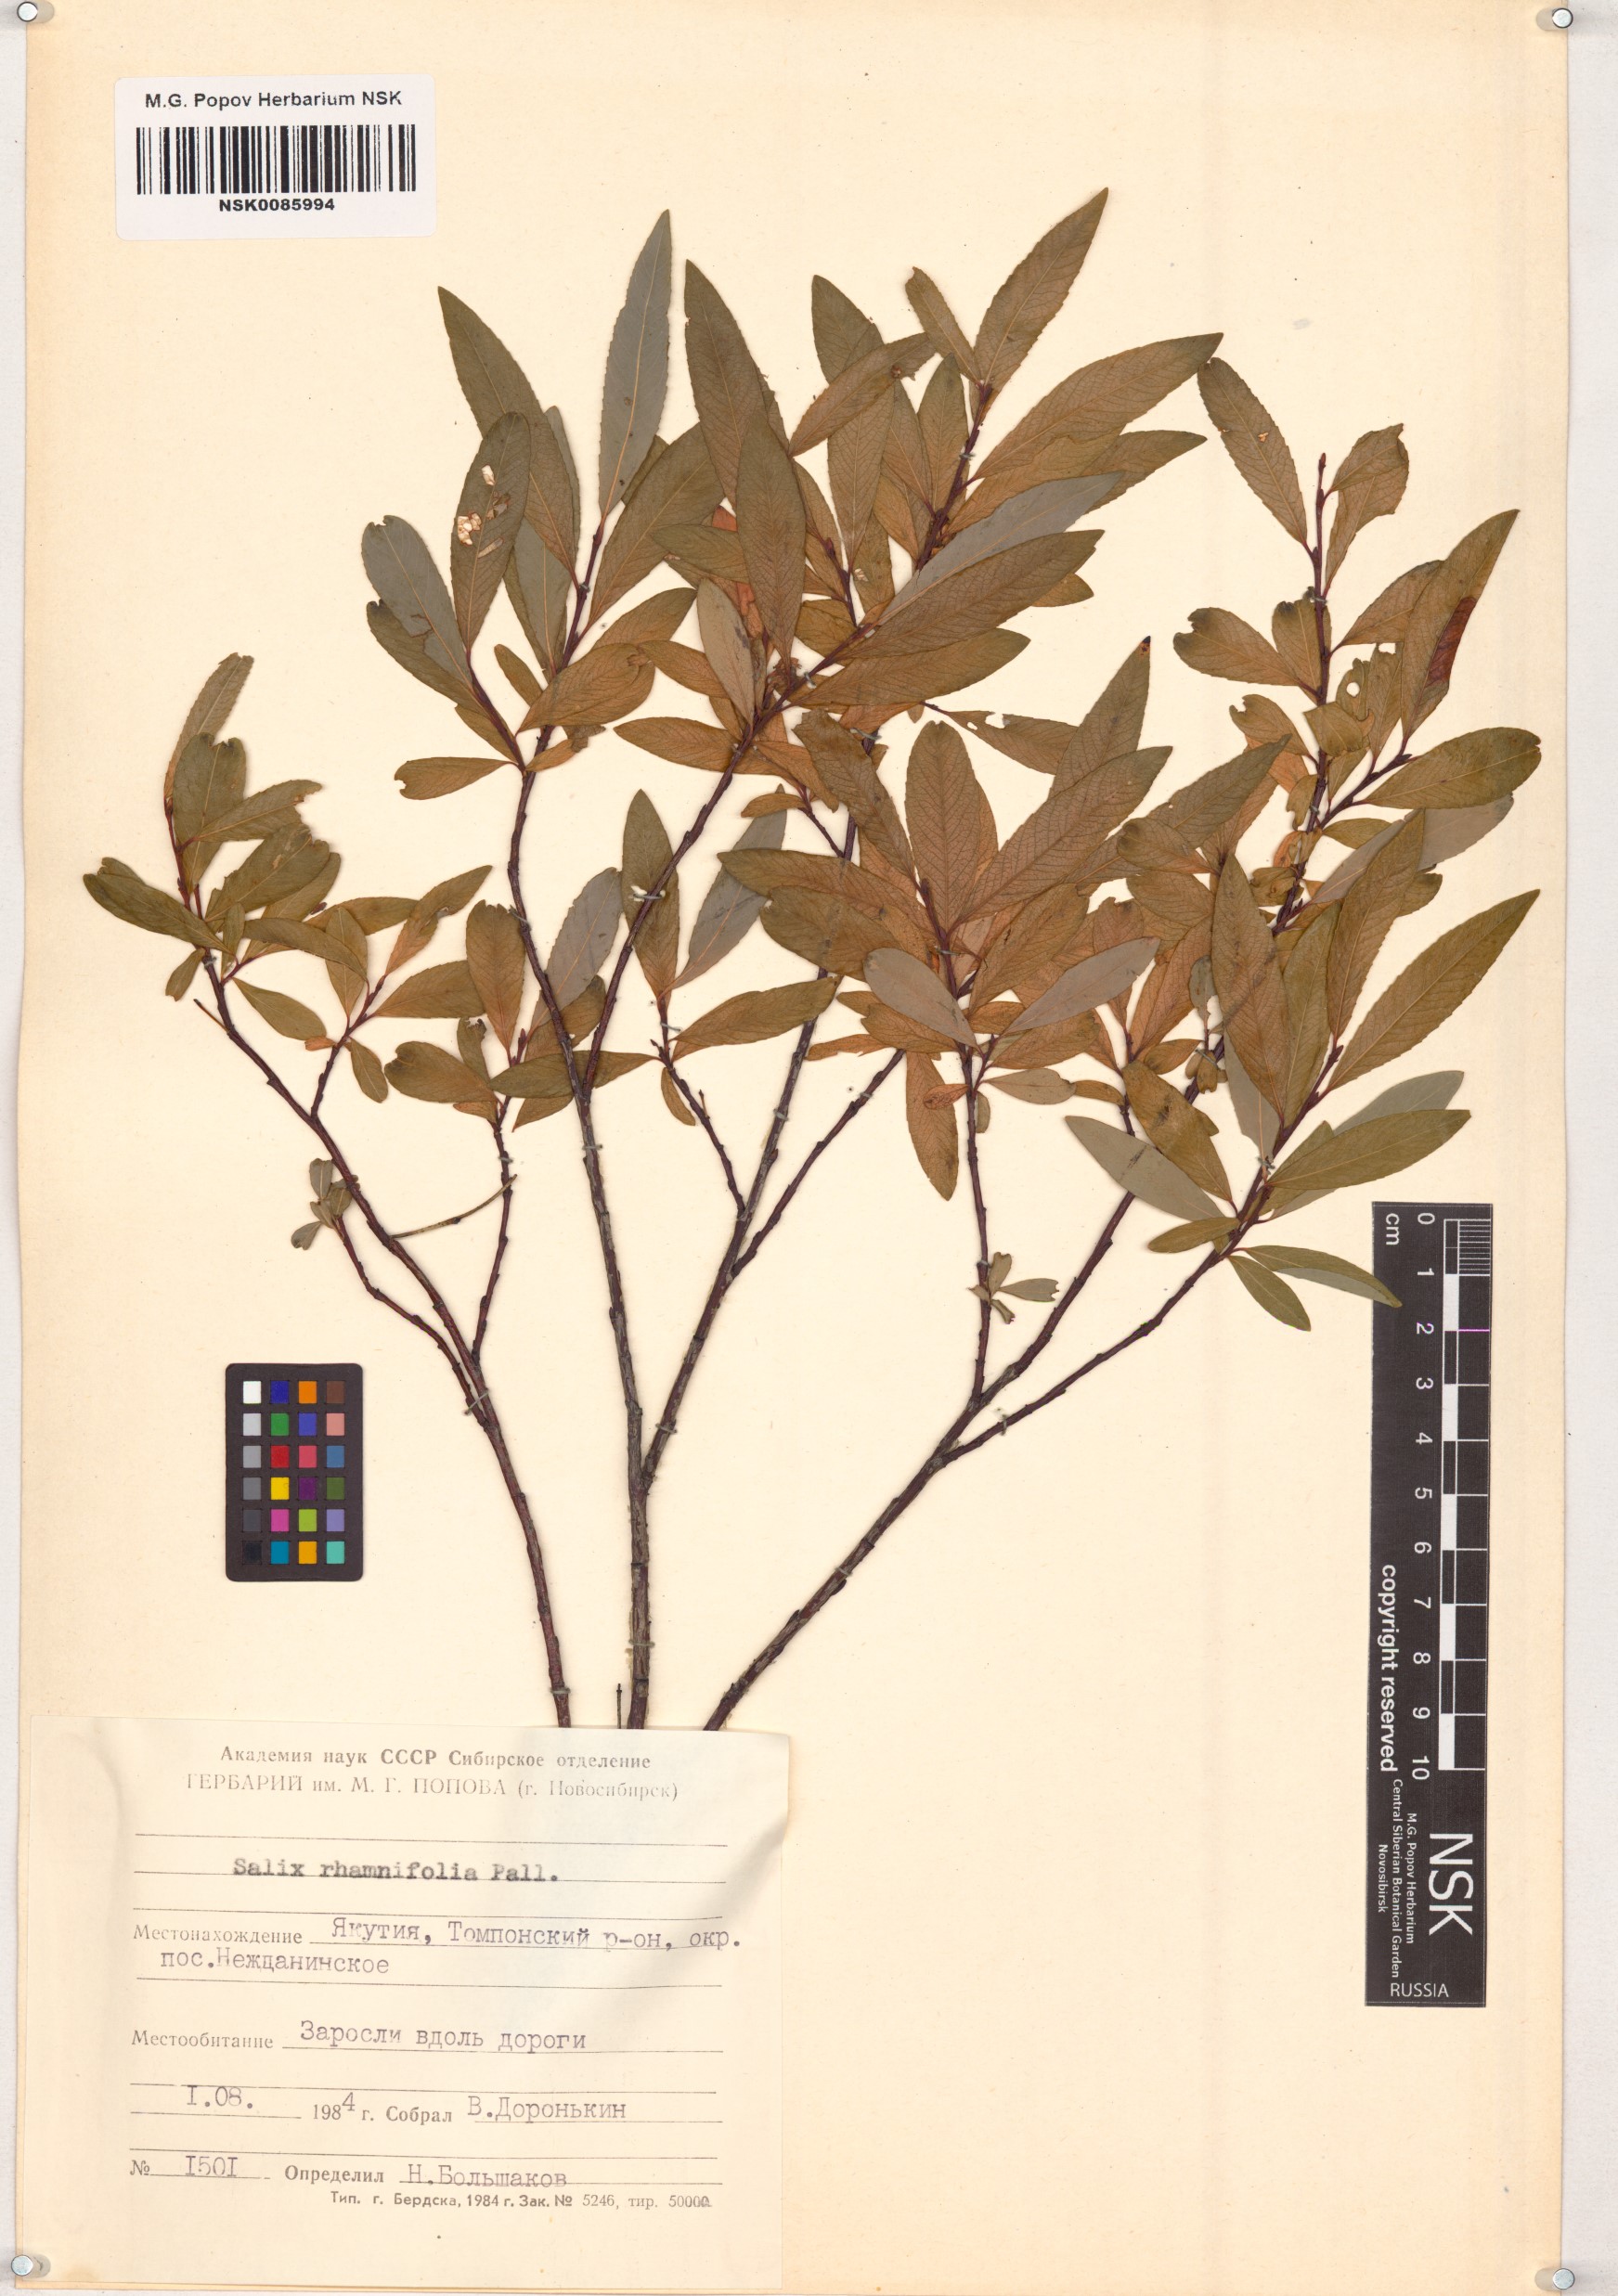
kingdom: Plantae
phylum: Tracheophyta
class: Magnoliopsida
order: Malpighiales
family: Salicaceae
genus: Salix
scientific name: Salix rhamnifolia
